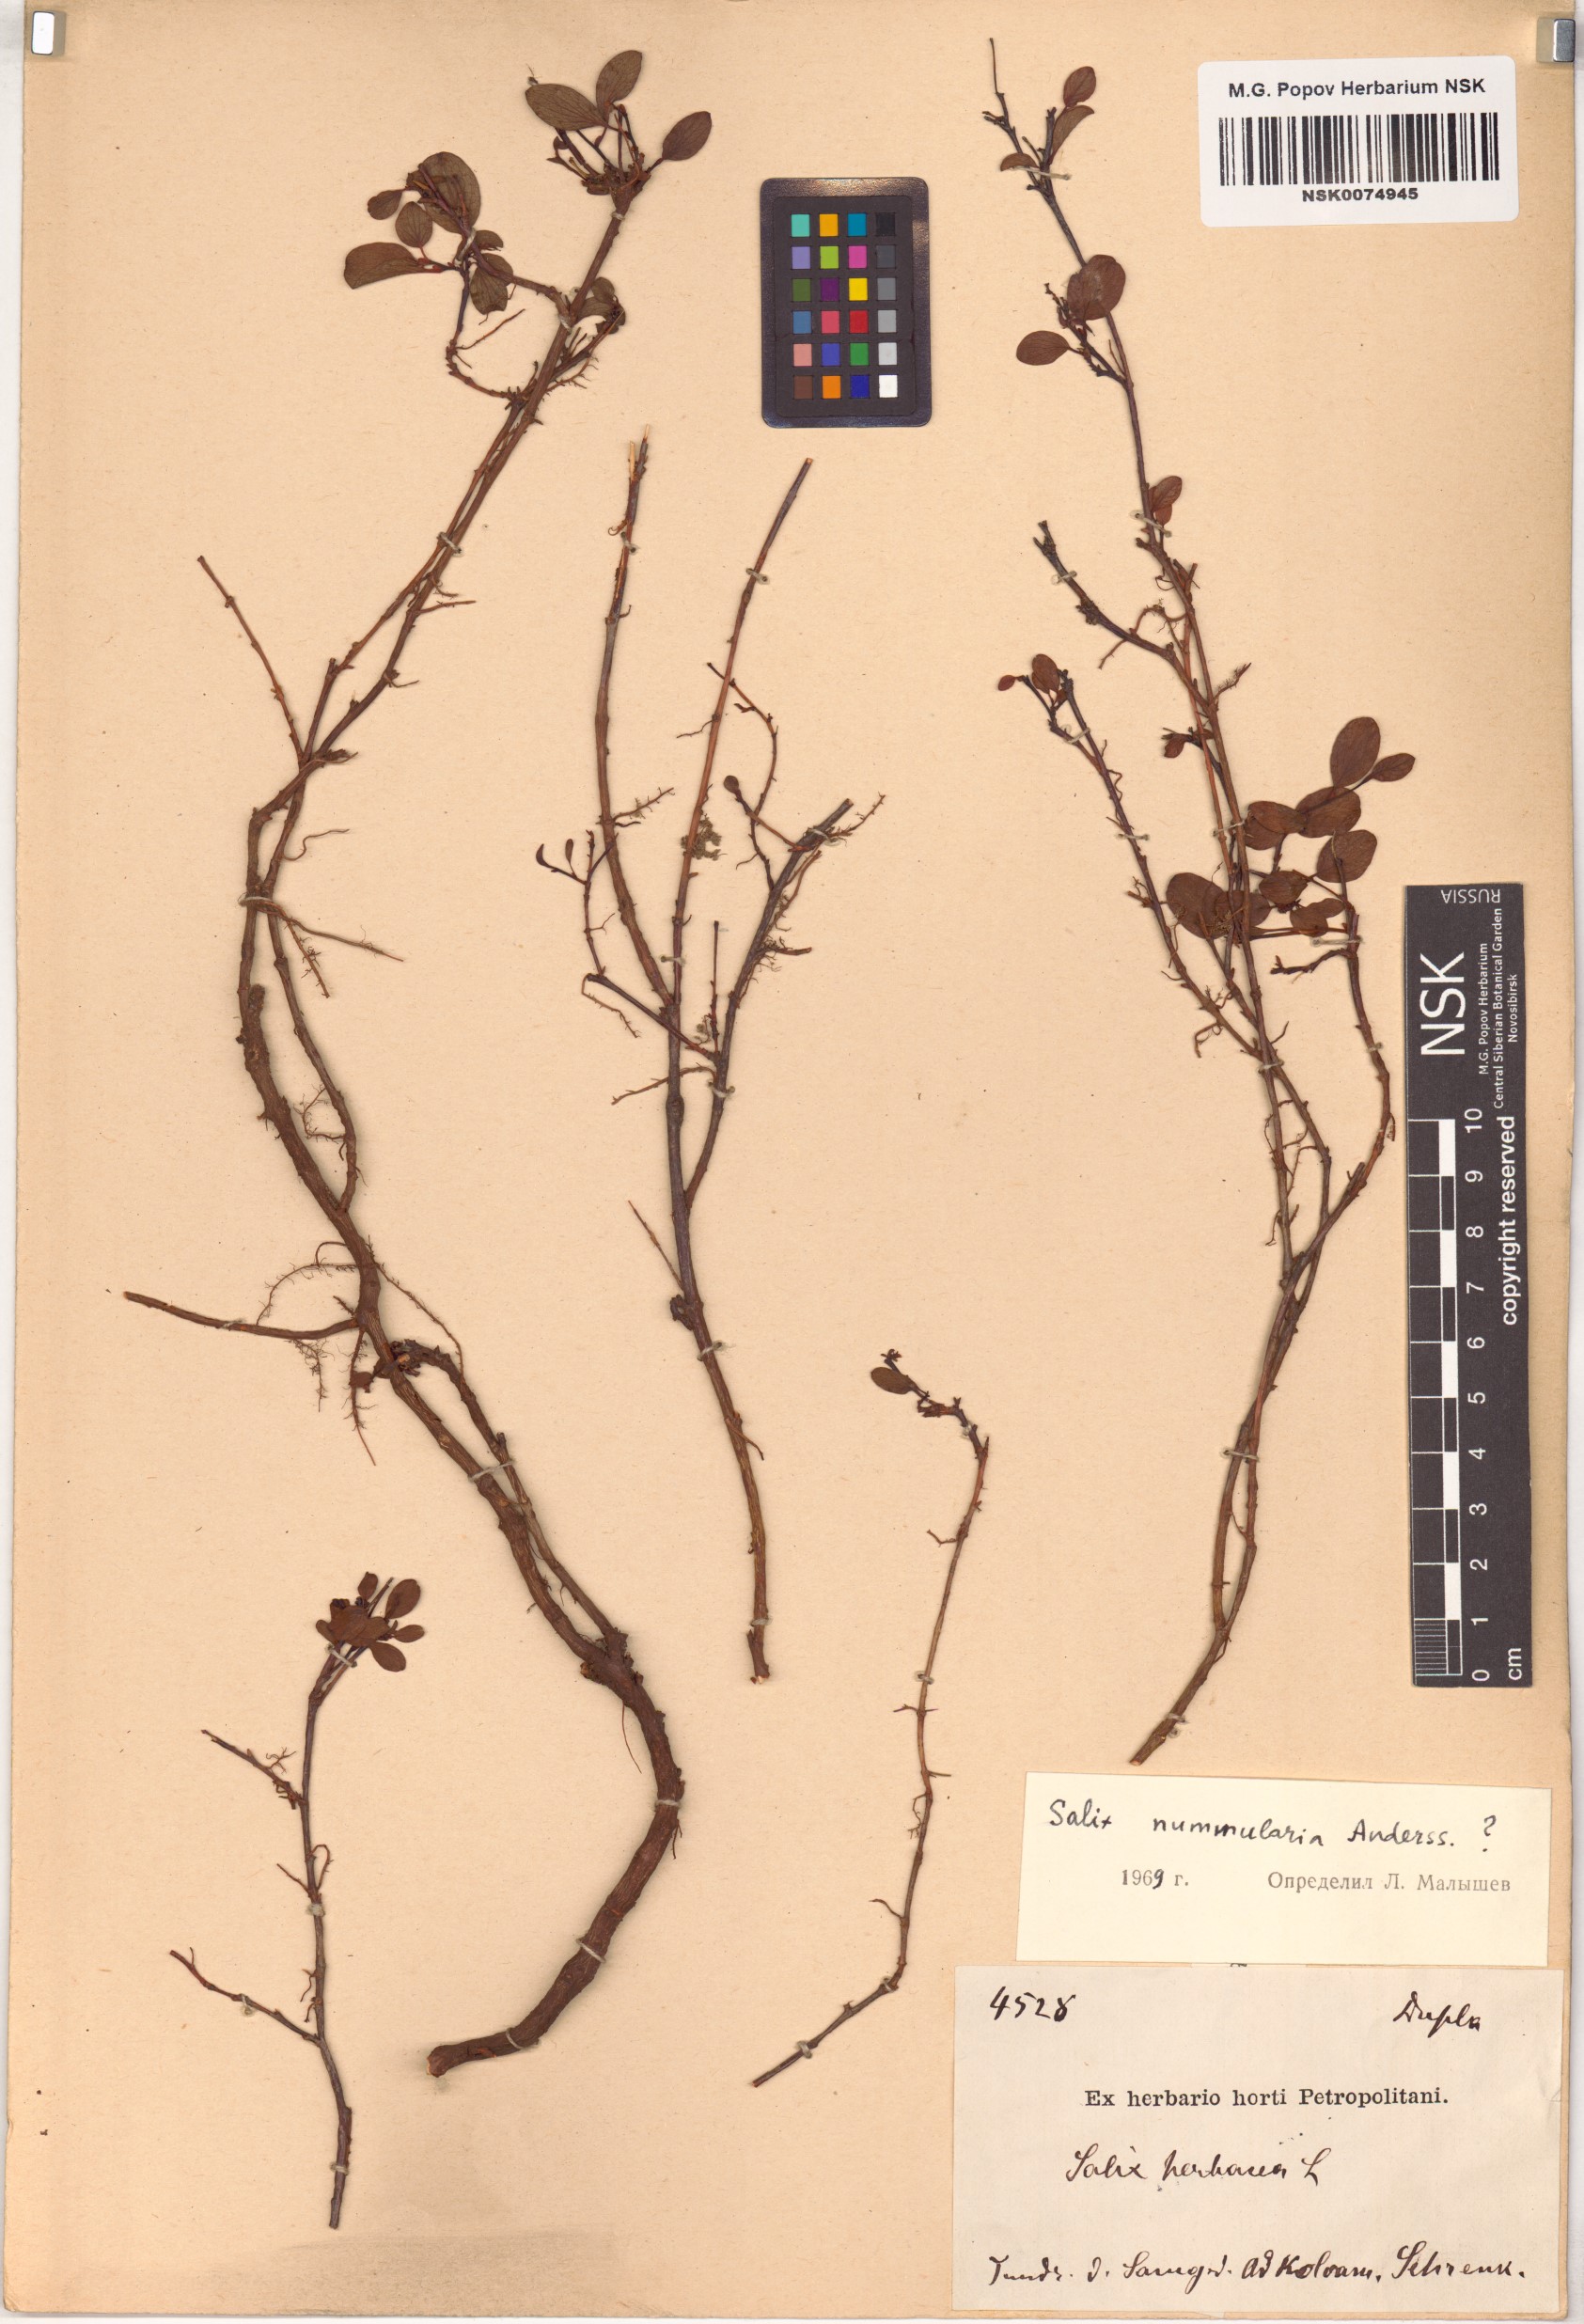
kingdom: Plantae
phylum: Tracheophyta
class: Magnoliopsida
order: Malpighiales
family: Salicaceae
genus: Salix
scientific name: Salix nummularia
